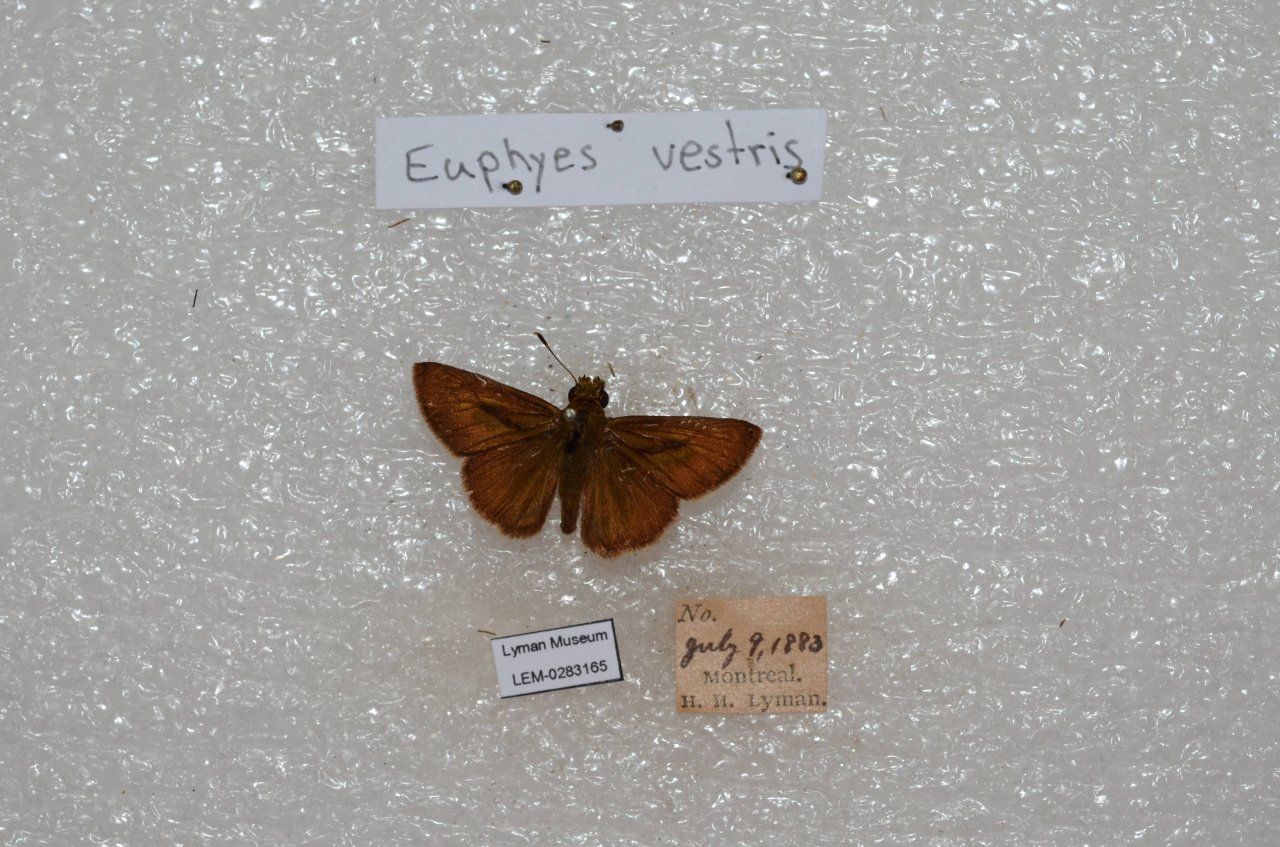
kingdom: Animalia
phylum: Arthropoda
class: Insecta
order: Lepidoptera
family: Hesperiidae
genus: Euphyes
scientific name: Euphyes vestris
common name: Dun Skipper
